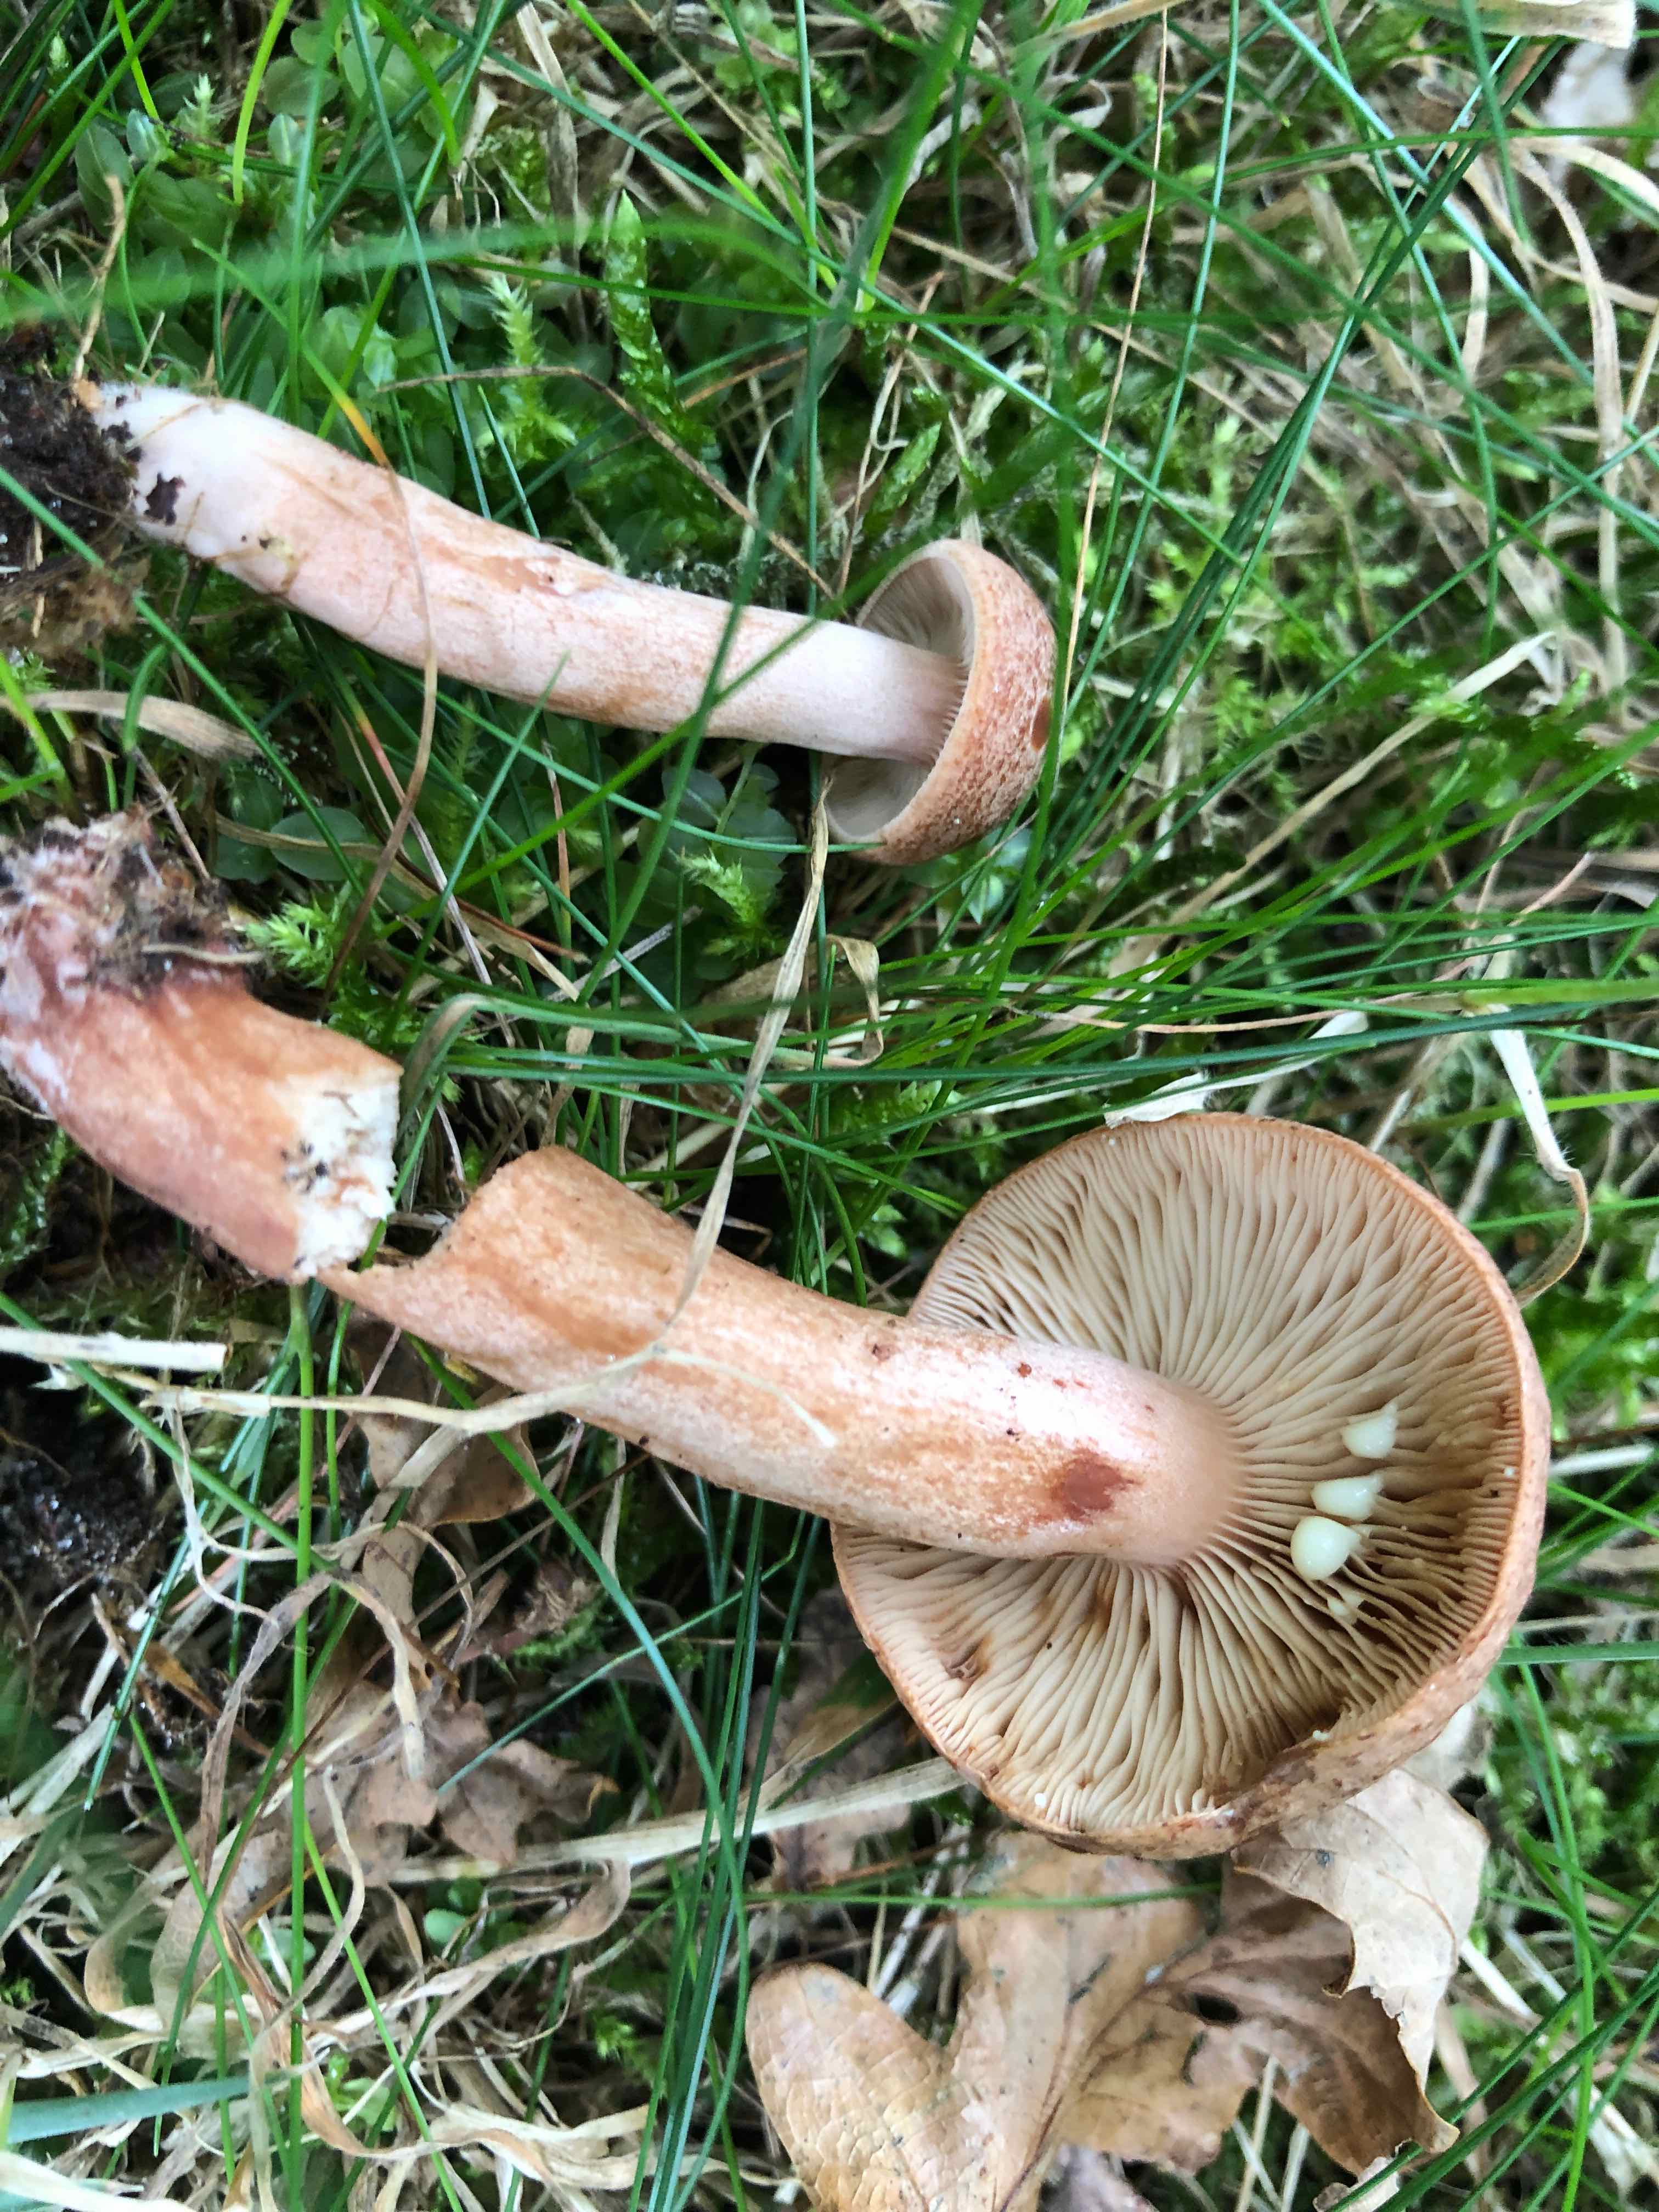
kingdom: Fungi
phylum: Basidiomycota
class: Agaricomycetes
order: Russulales
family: Russulaceae
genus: Lactarius
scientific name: Lactarius quietus
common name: ege-mælkehat
